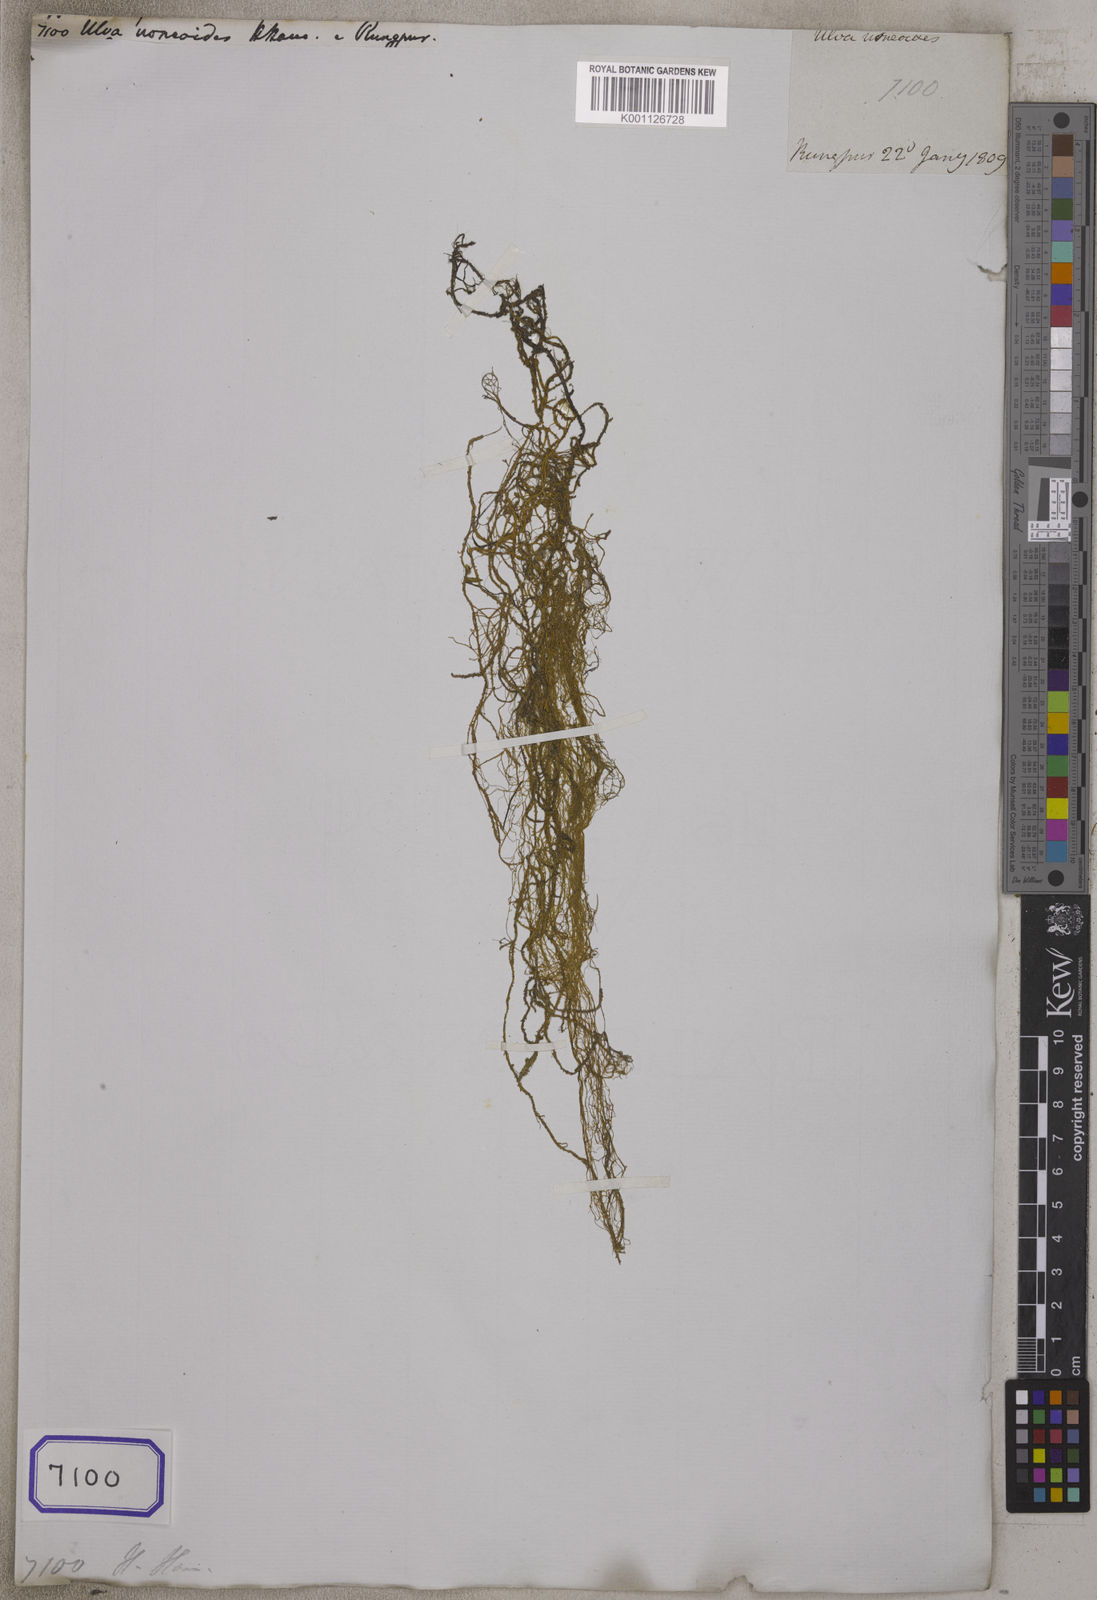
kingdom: Plantae
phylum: Tracheophyta
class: Liliopsida
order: Poales
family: Cyperaceae
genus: Ulva
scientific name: Ulva
